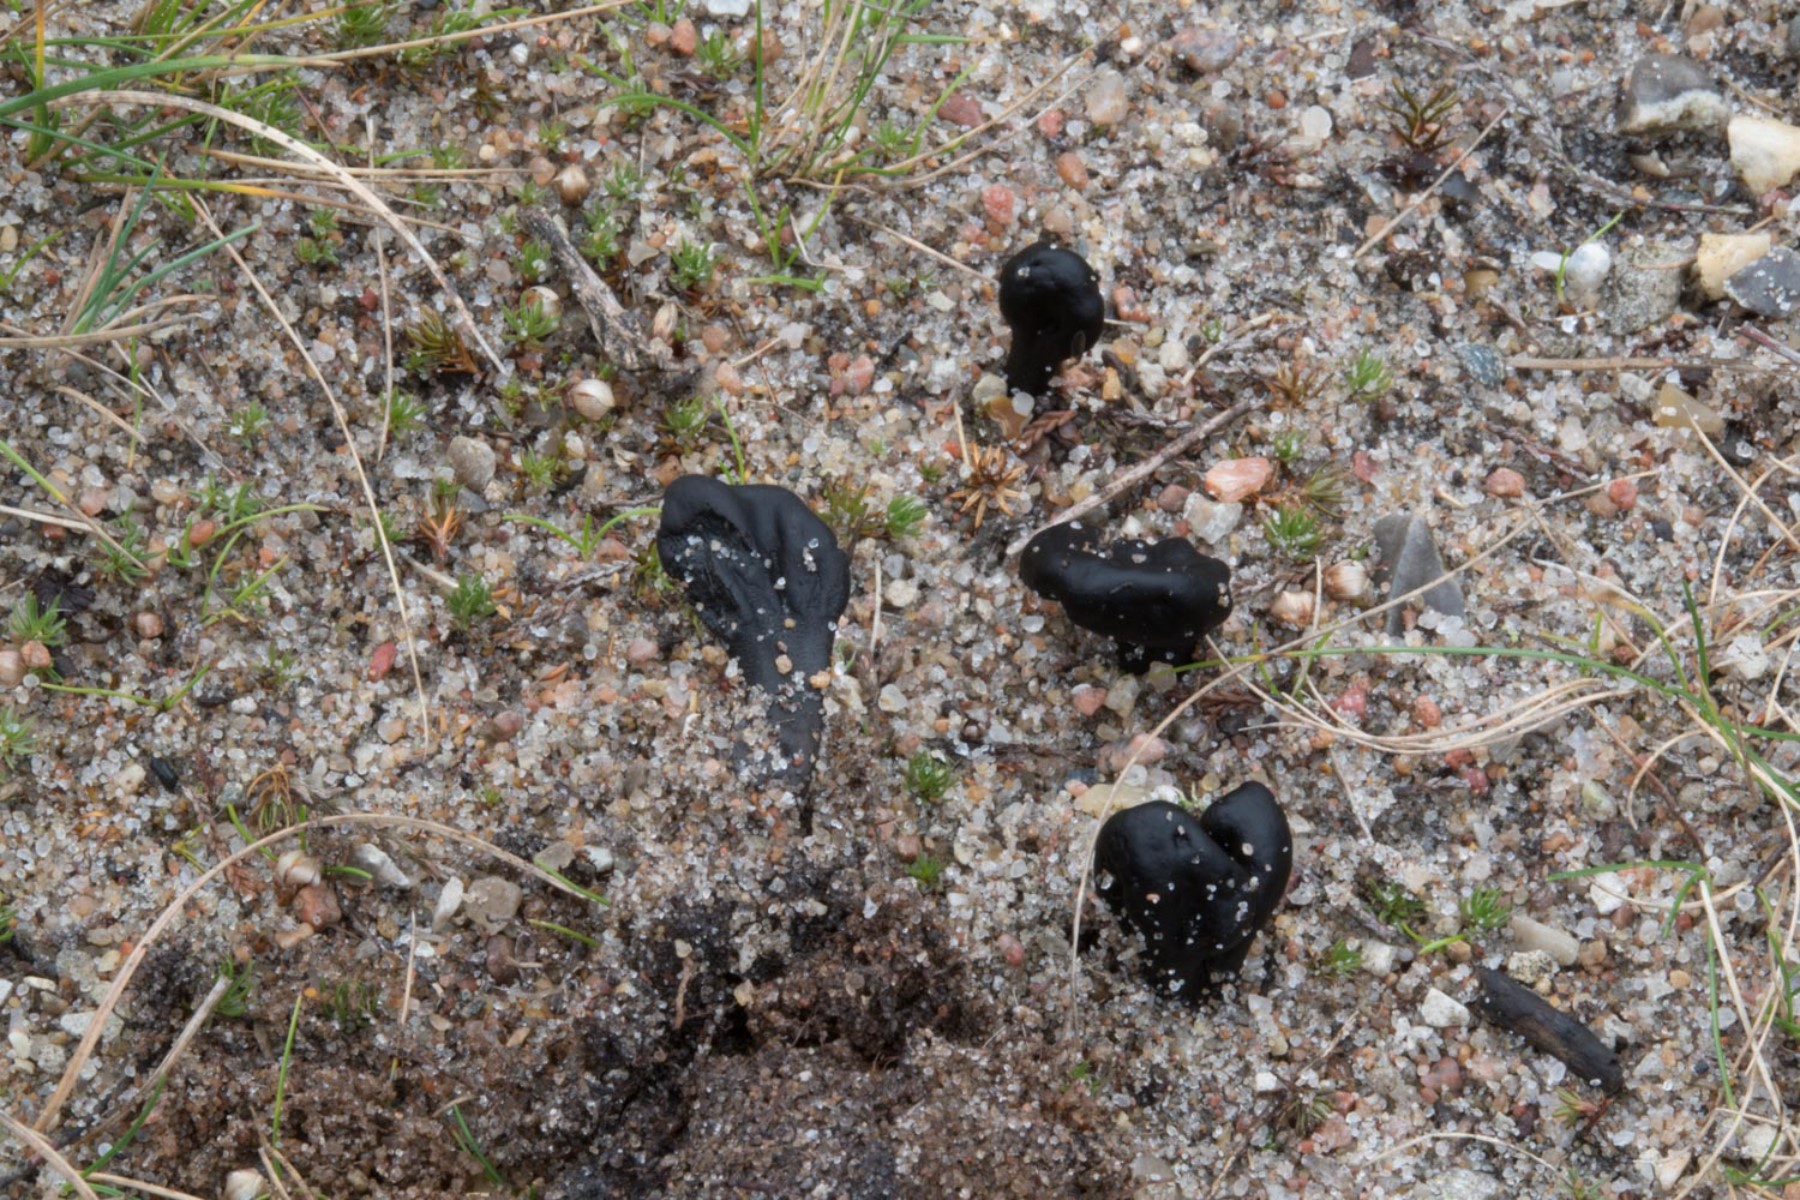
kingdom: Fungi
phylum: Ascomycota
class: Geoglossomycetes
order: Geoglossales
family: Geoglossaceae
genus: Sabuloglossum
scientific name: Sabuloglossum arenarium
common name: klit-jordtunge
